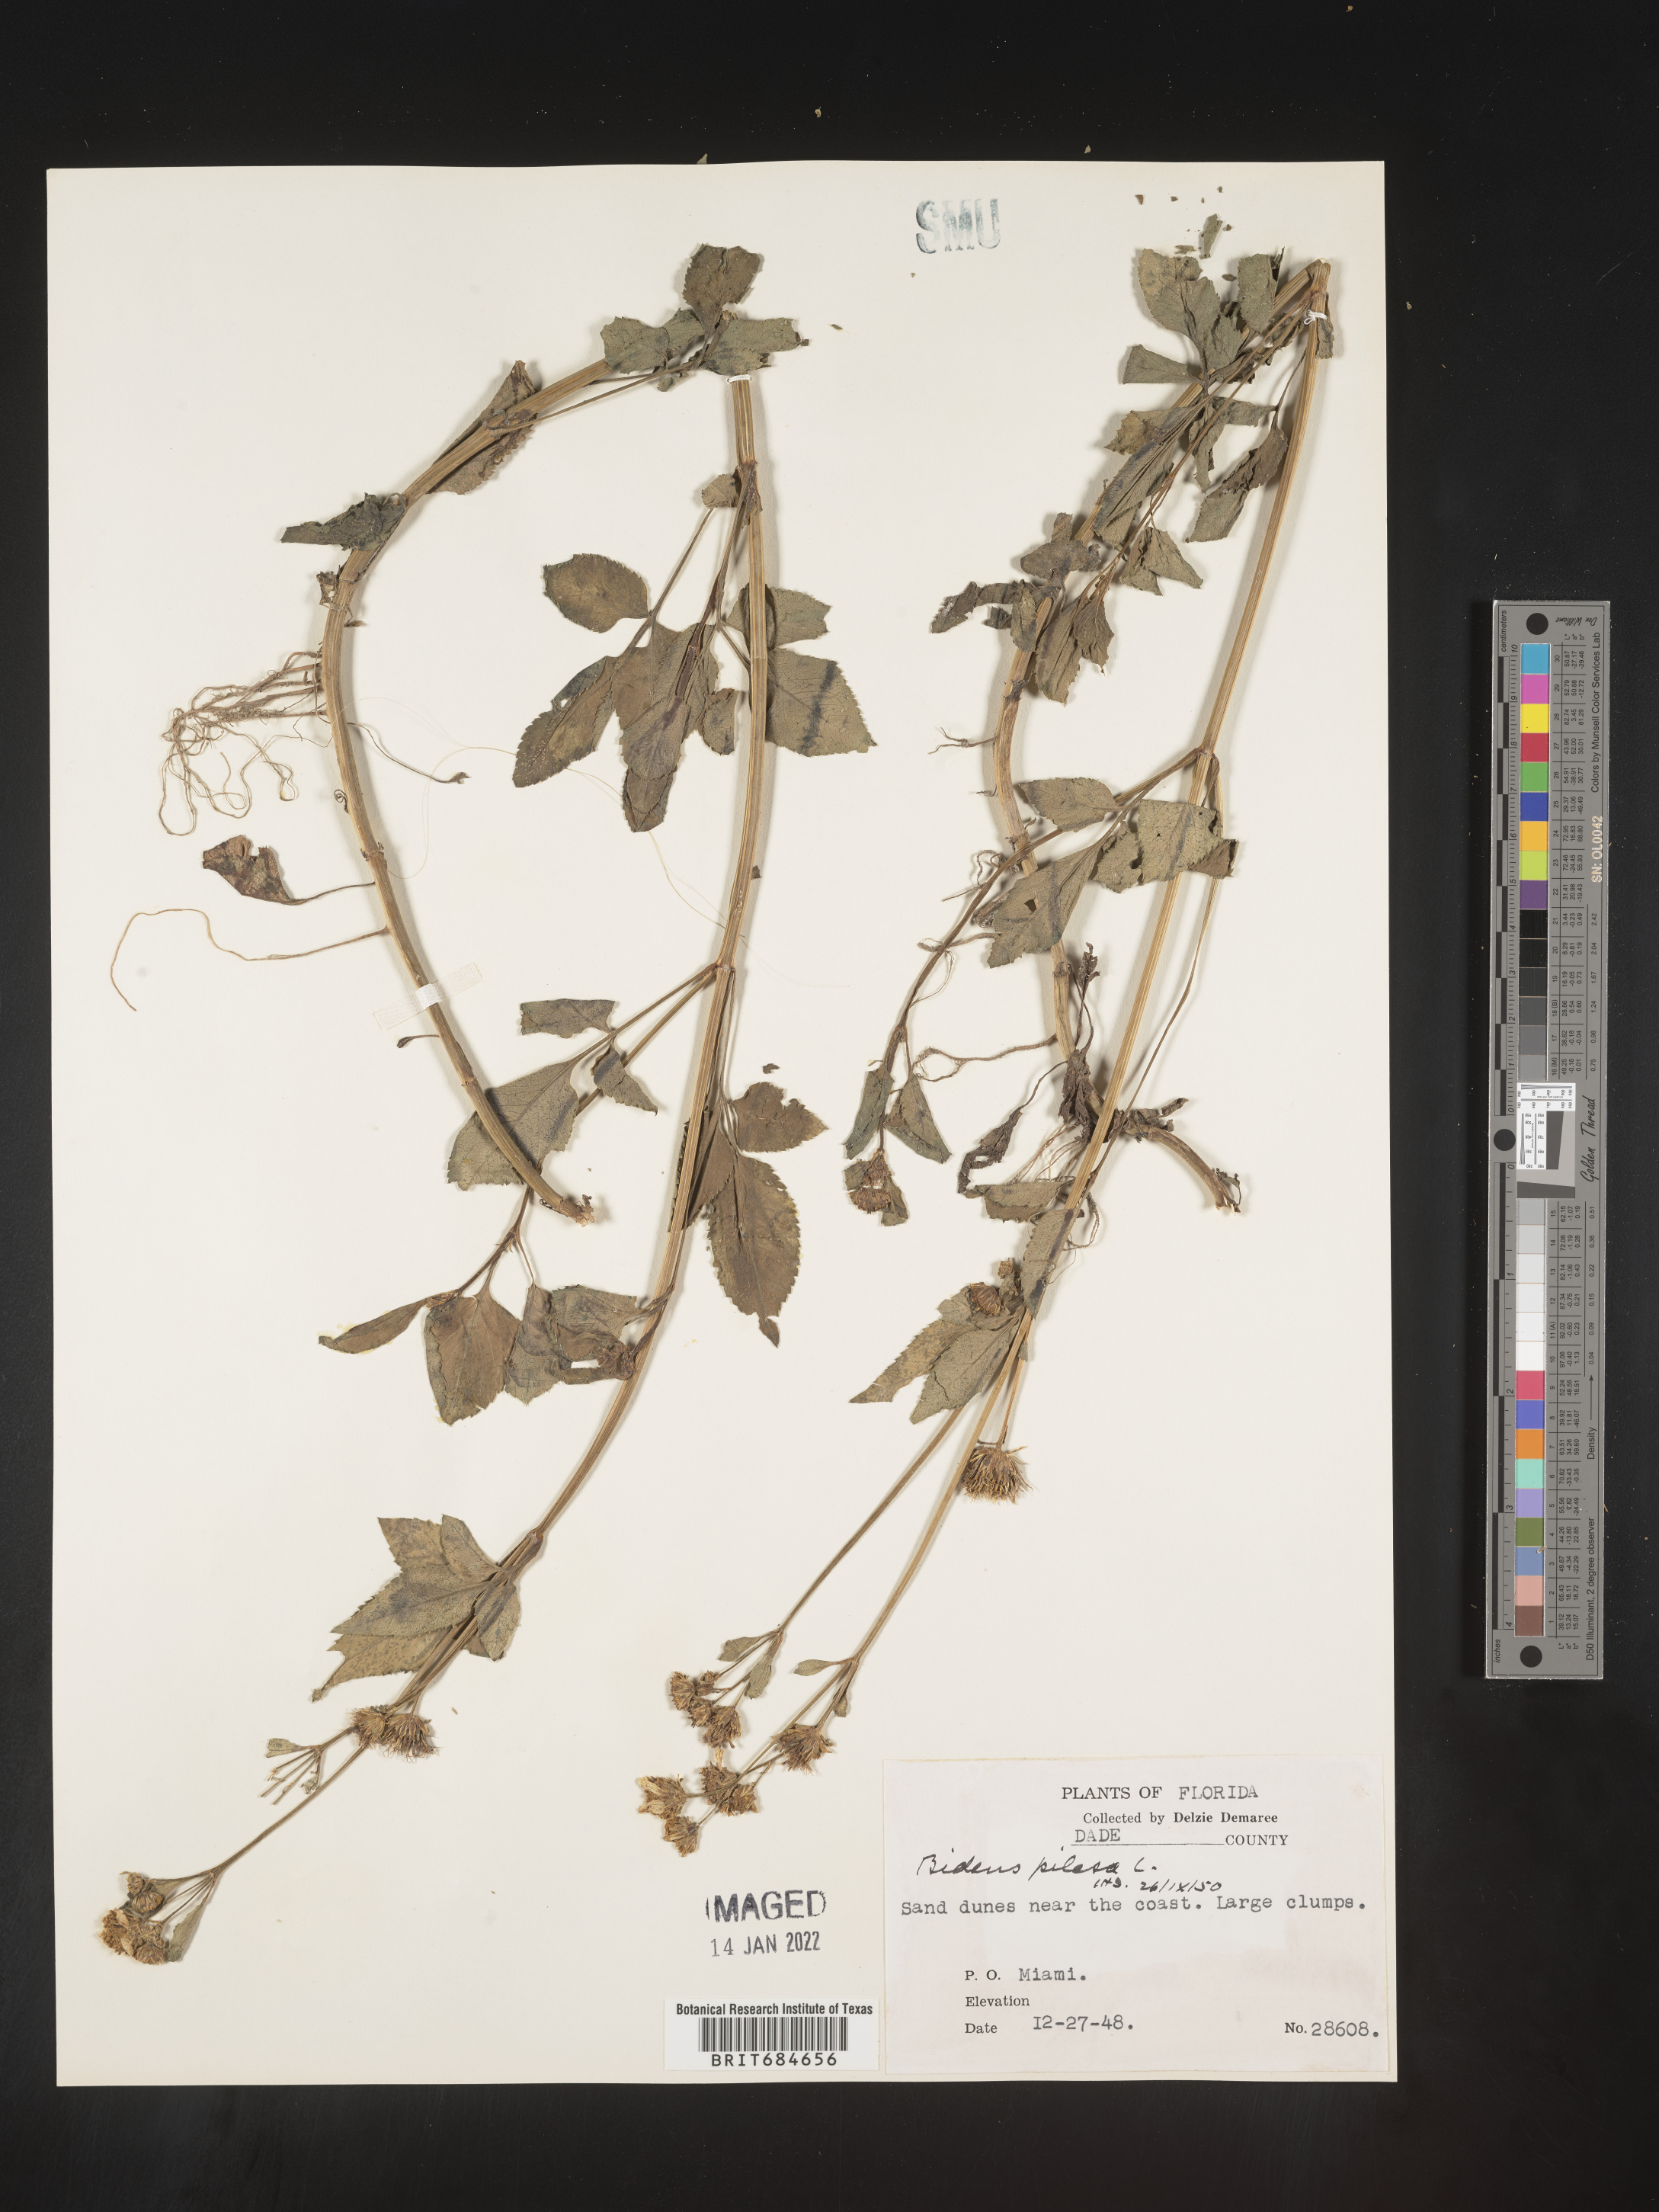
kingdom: Plantae
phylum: Tracheophyta
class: Magnoliopsida
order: Asterales
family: Asteraceae
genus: Bidens
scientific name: Bidens pilosa
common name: Black-jack
